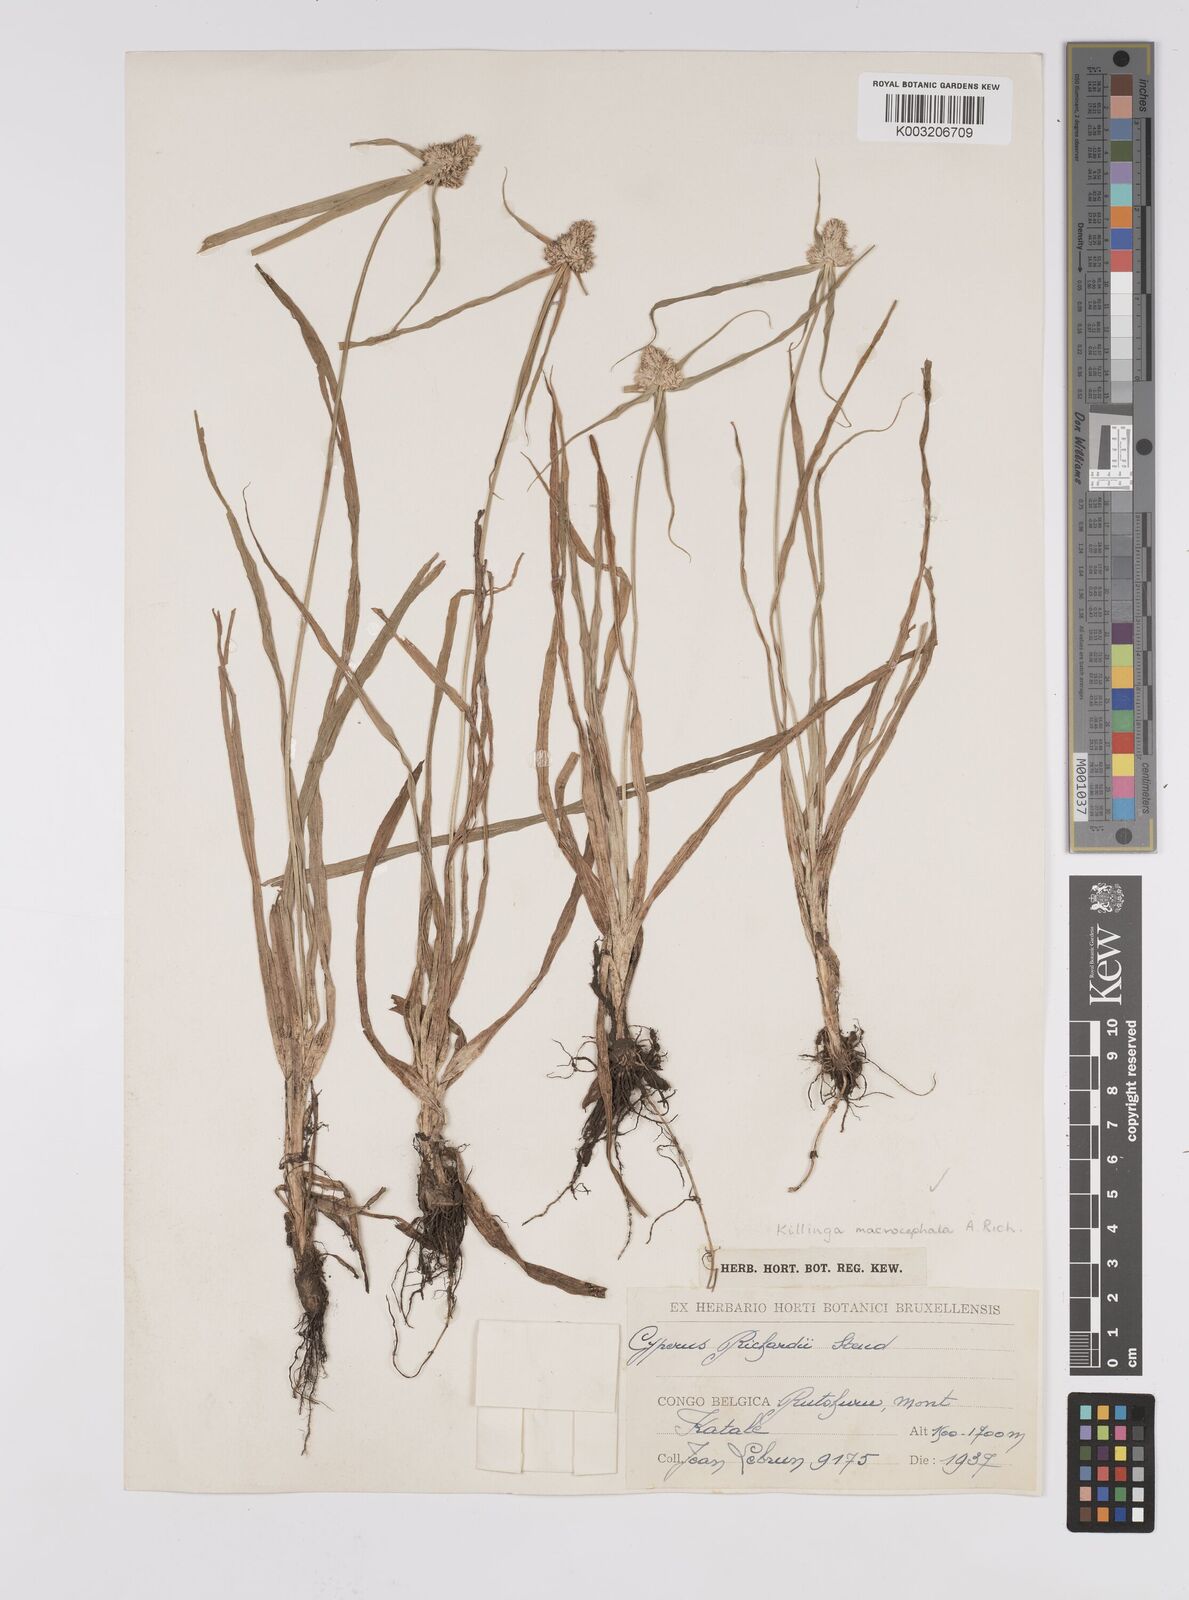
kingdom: Plantae
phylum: Tracheophyta
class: Liliopsida
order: Poales
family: Cyperaceae
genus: Cyperus
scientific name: Cyperus conglobatus
